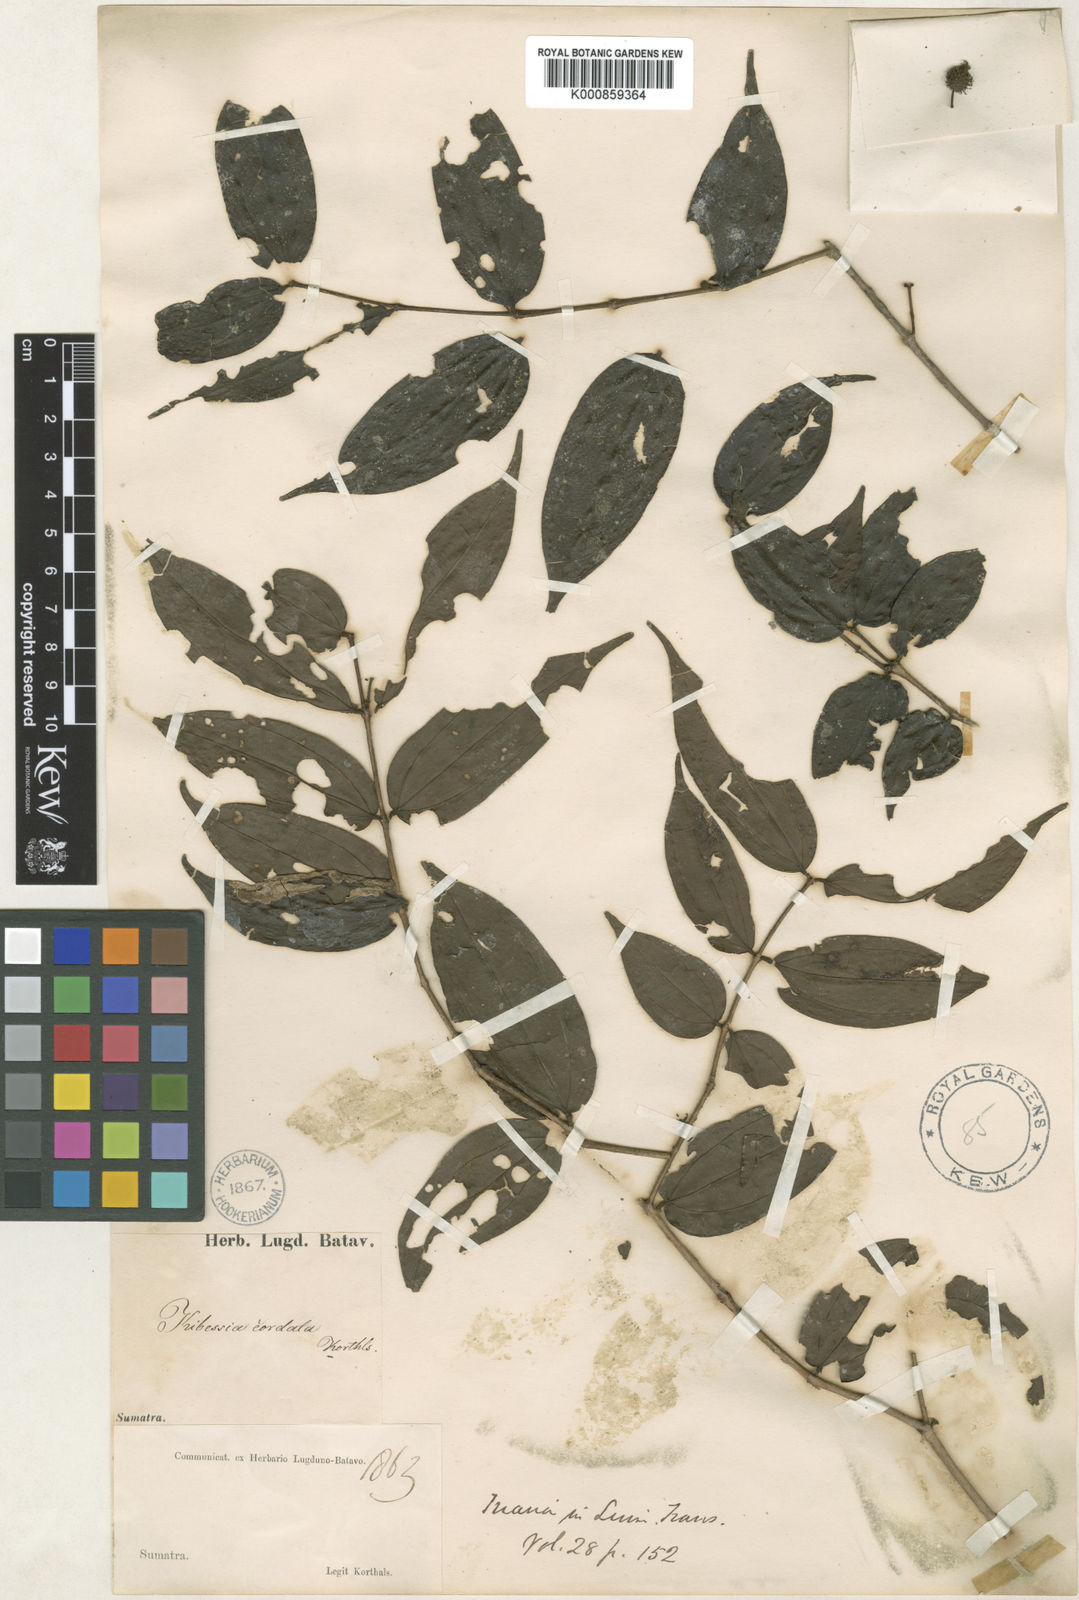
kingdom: Plantae
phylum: Tracheophyta
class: Magnoliopsida
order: Myrtales
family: Melastomataceae
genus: Pternandra
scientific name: Pternandra azurea
